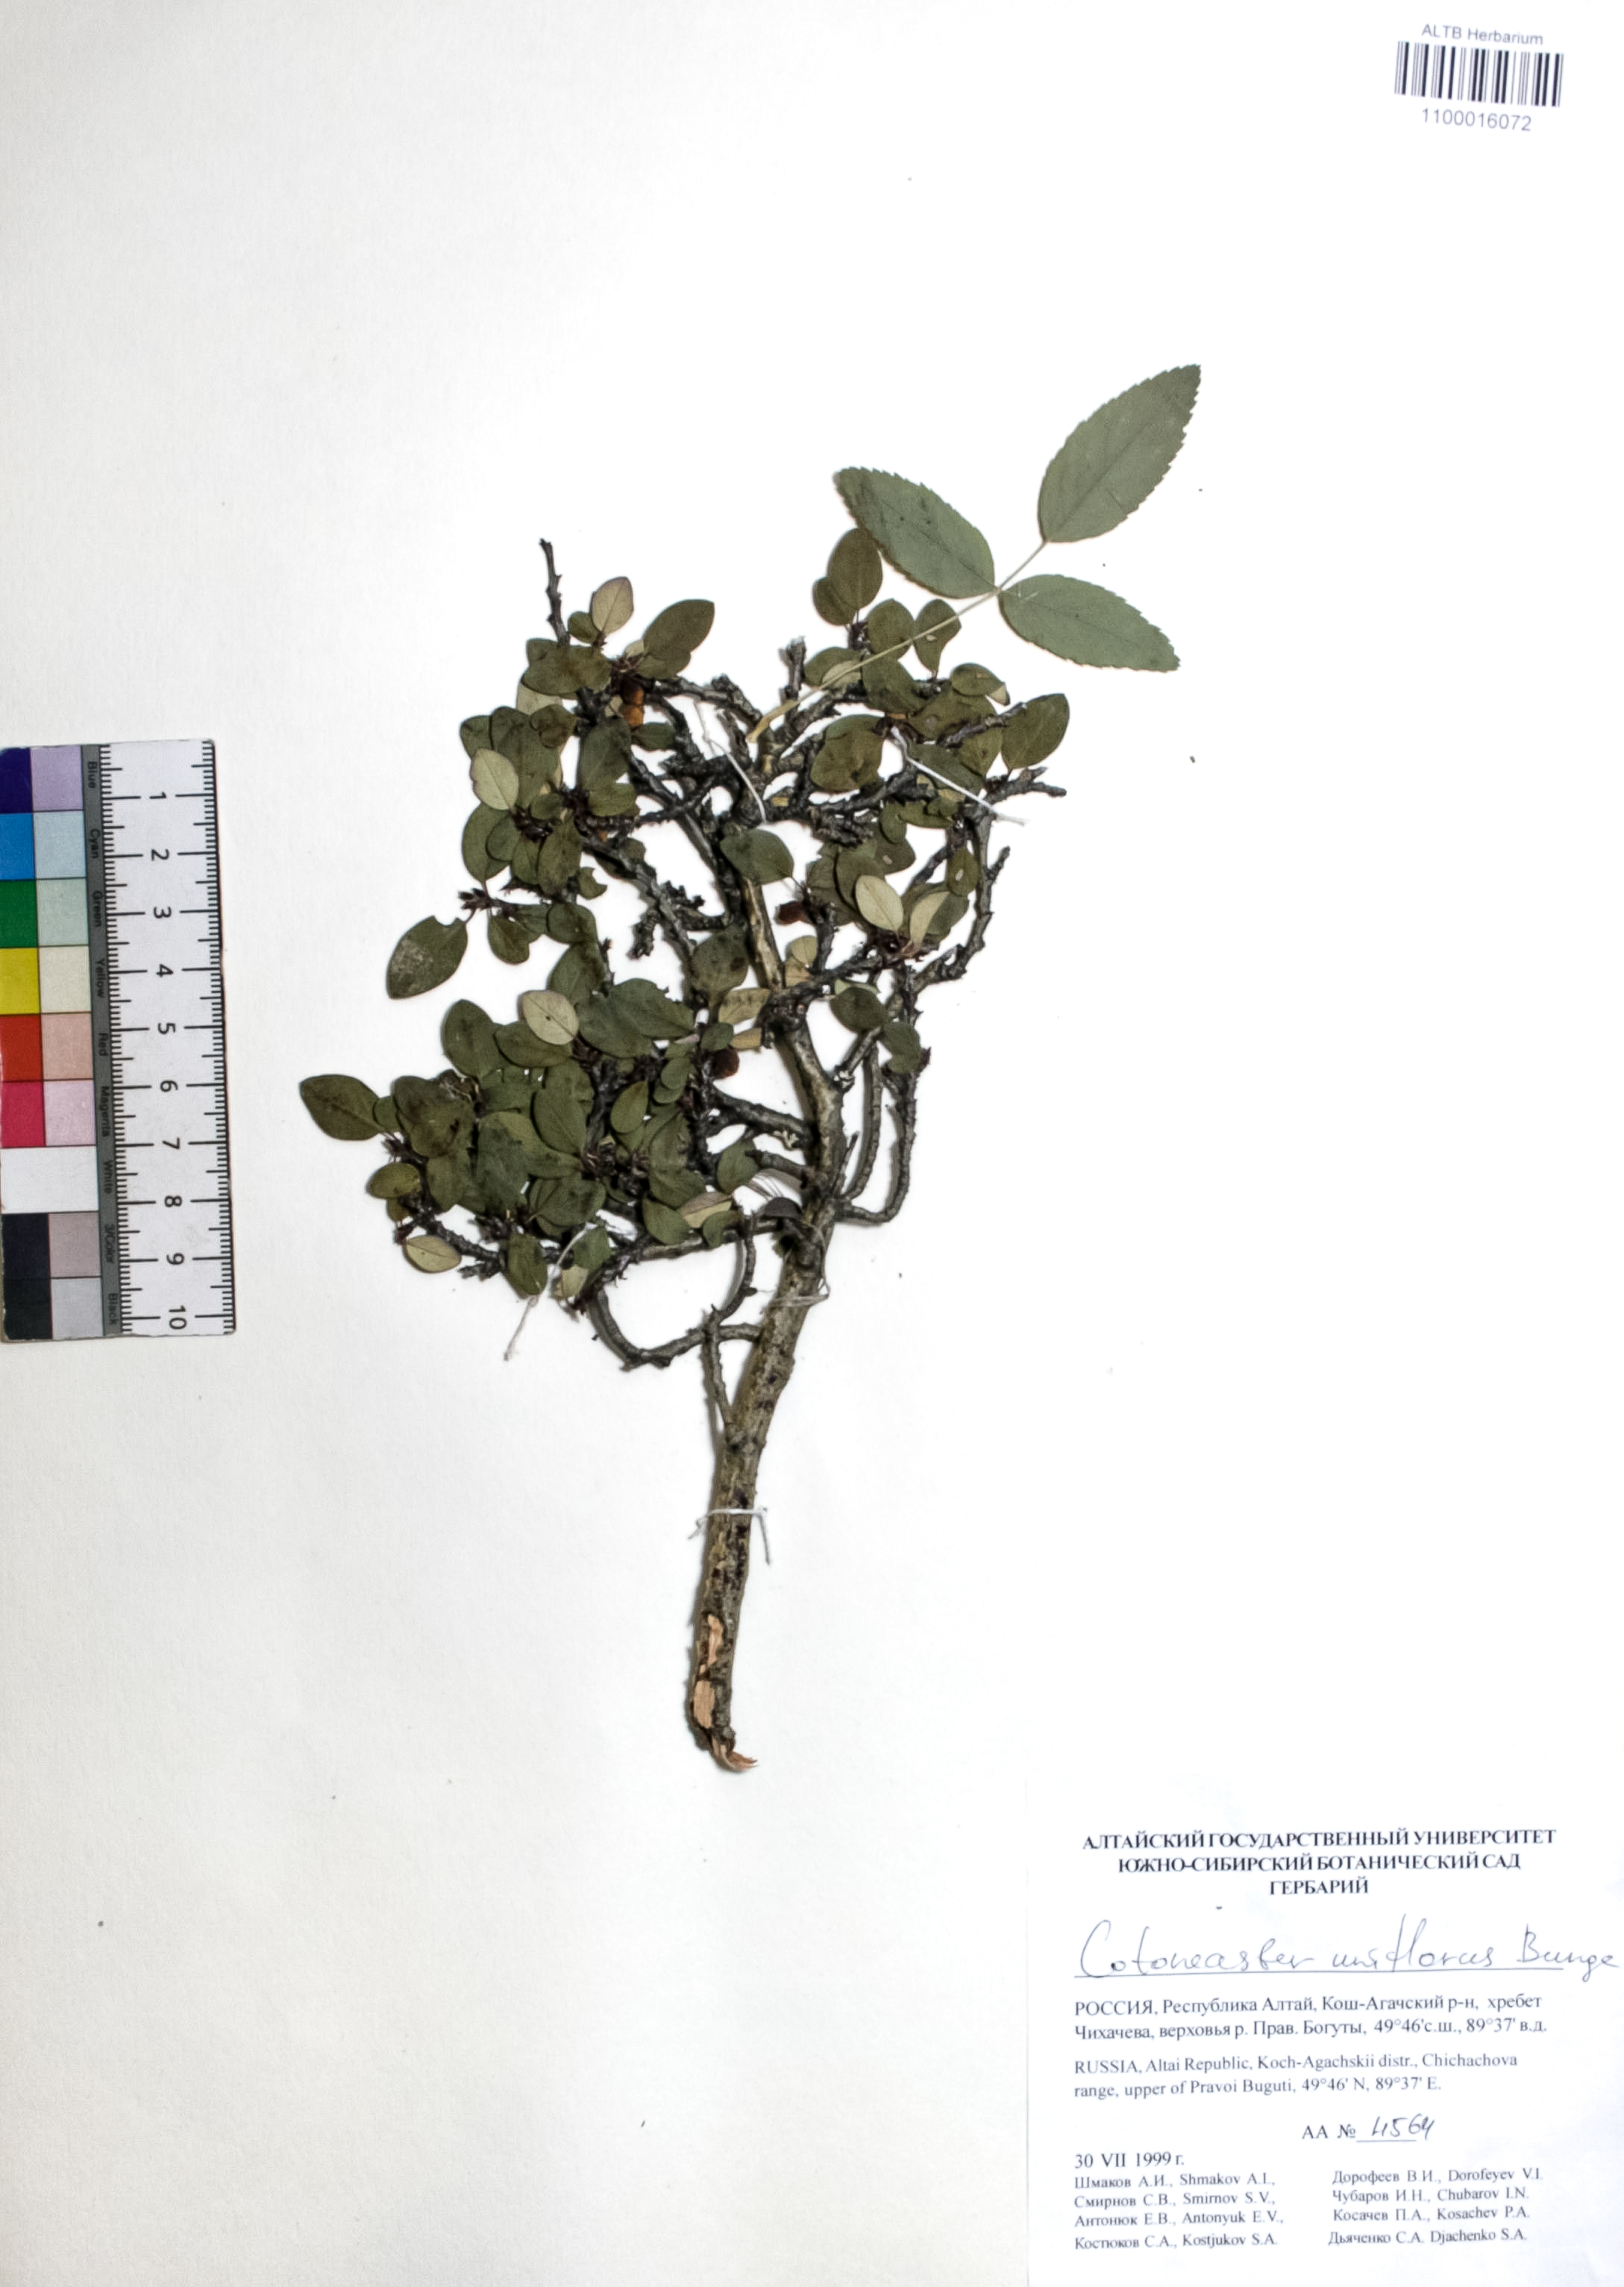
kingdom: Plantae
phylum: Tracheophyta
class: Magnoliopsida
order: Rosales
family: Rosaceae
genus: Cotoneaster
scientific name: Cotoneaster uniflorus
